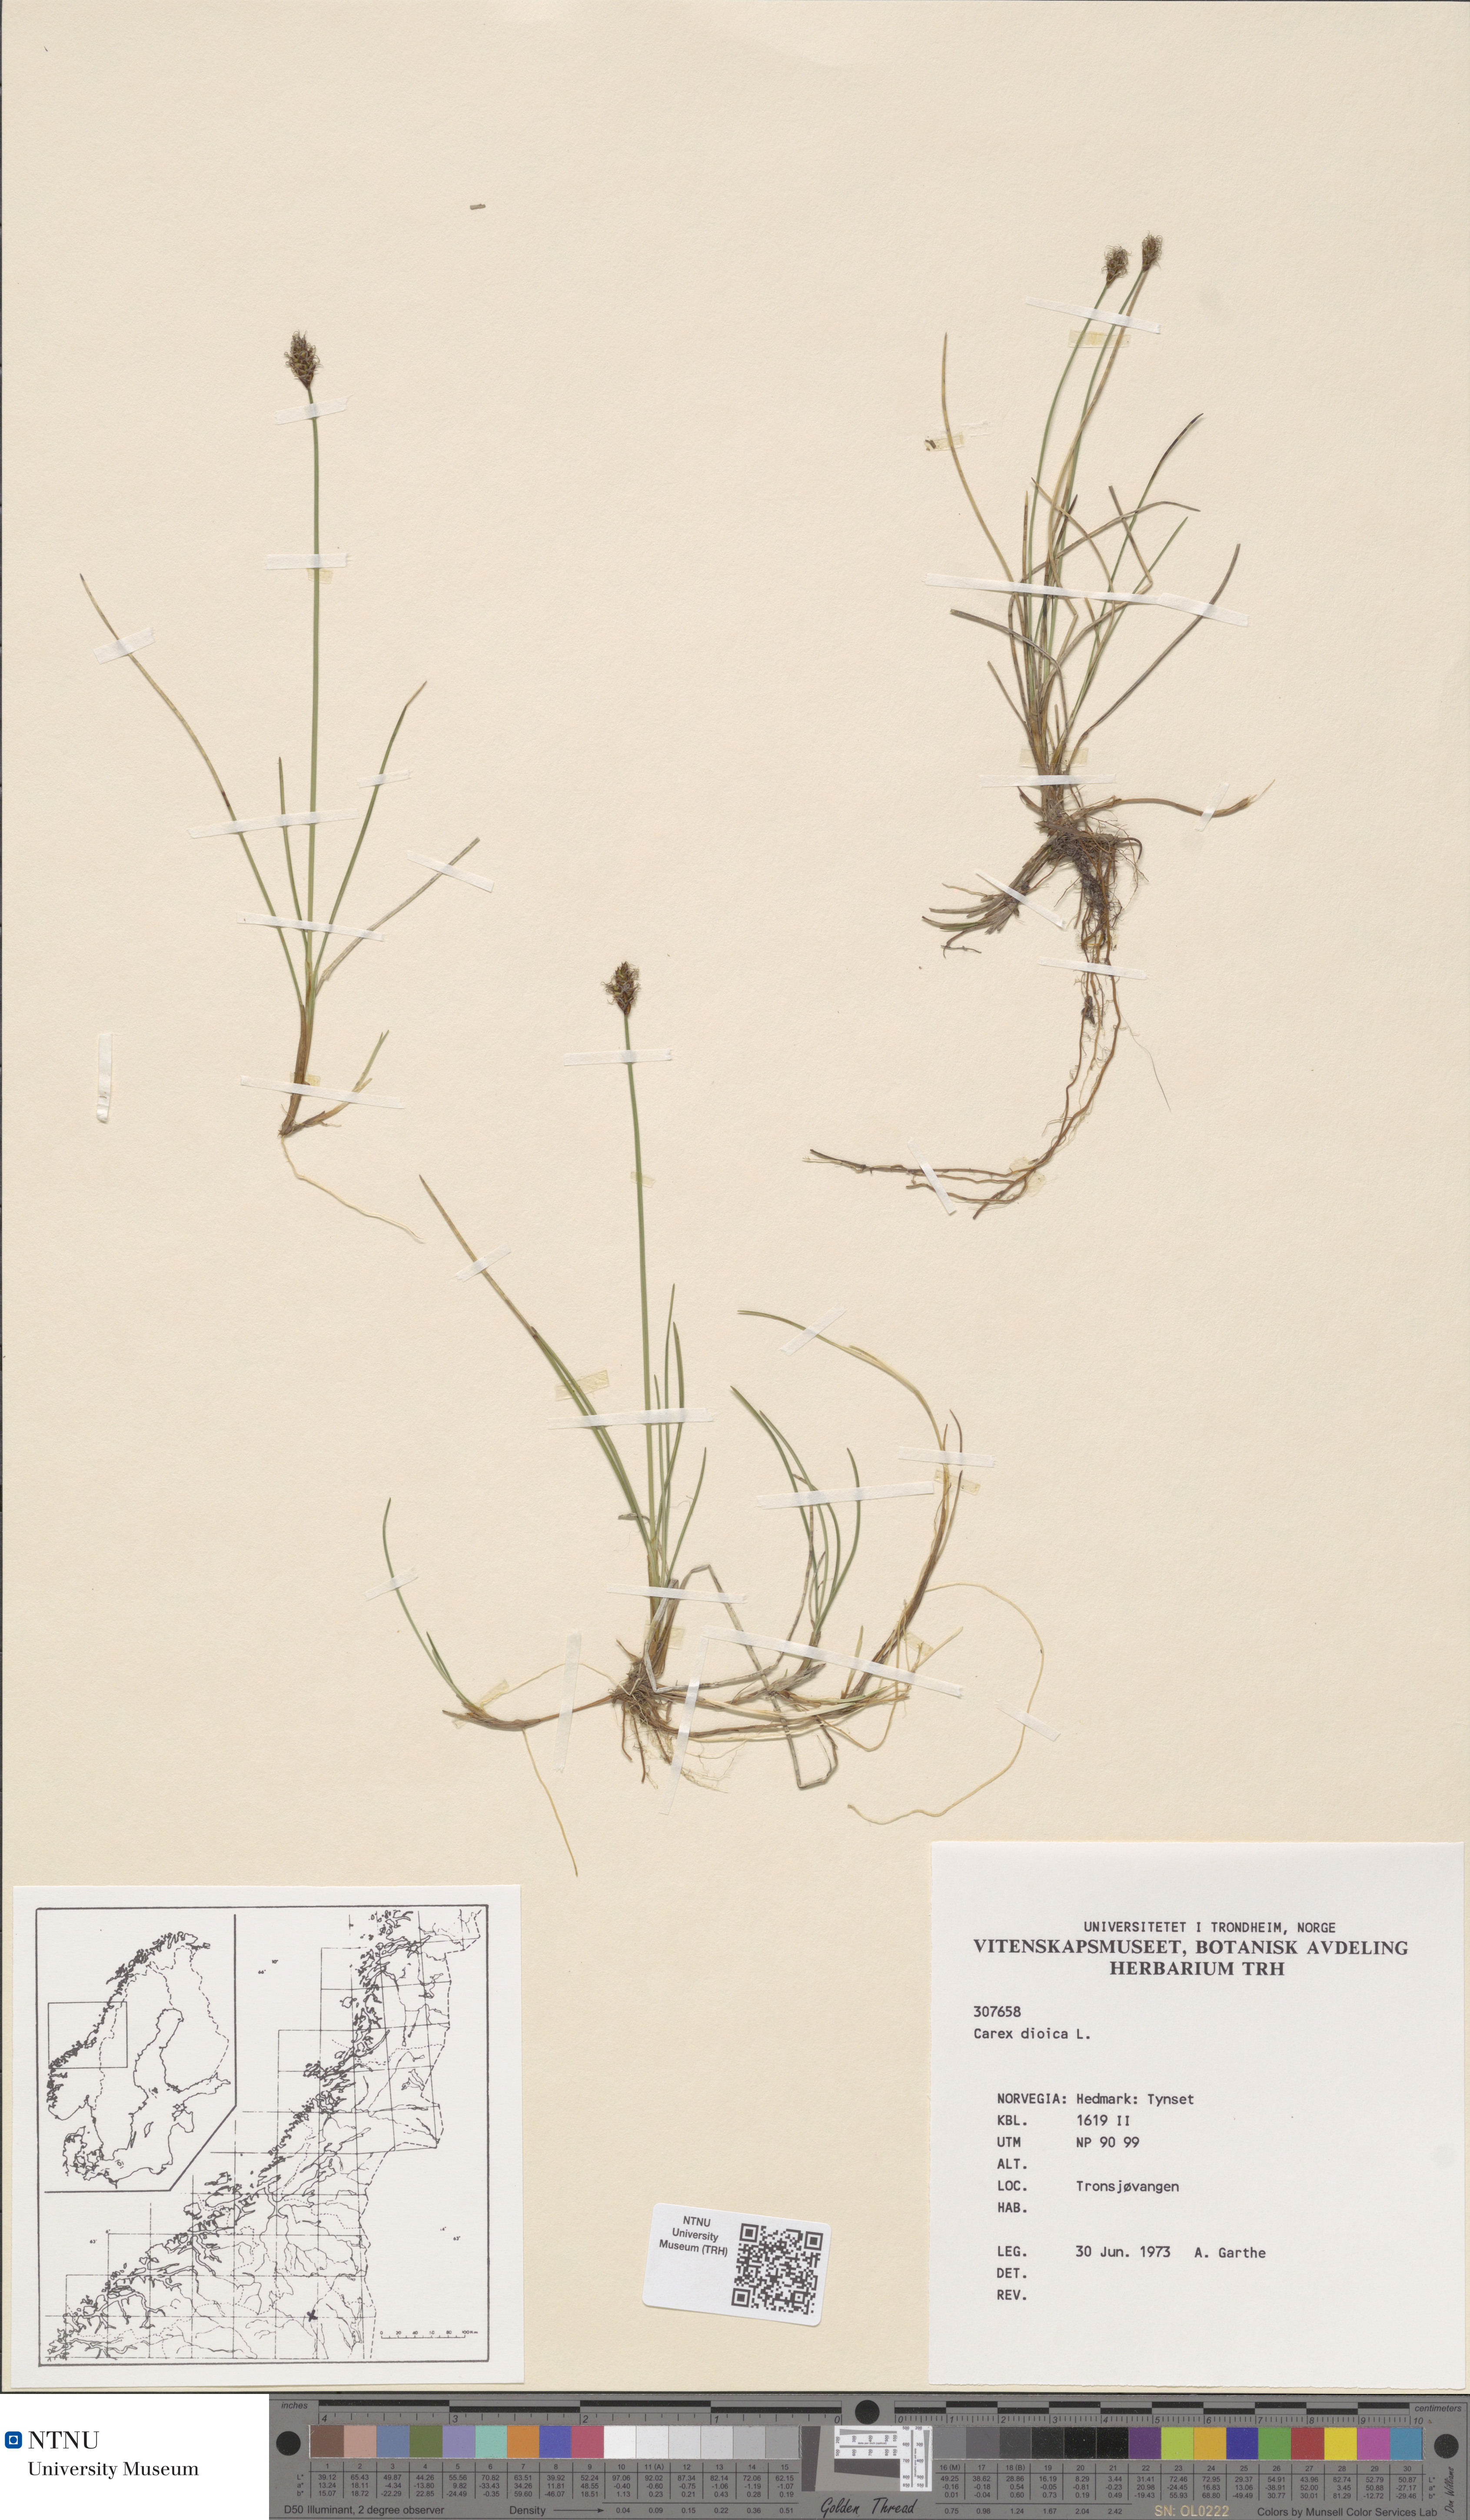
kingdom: Plantae
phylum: Tracheophyta
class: Liliopsida
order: Poales
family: Cyperaceae
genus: Carex
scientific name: Carex dioica
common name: Dioecious sedge
